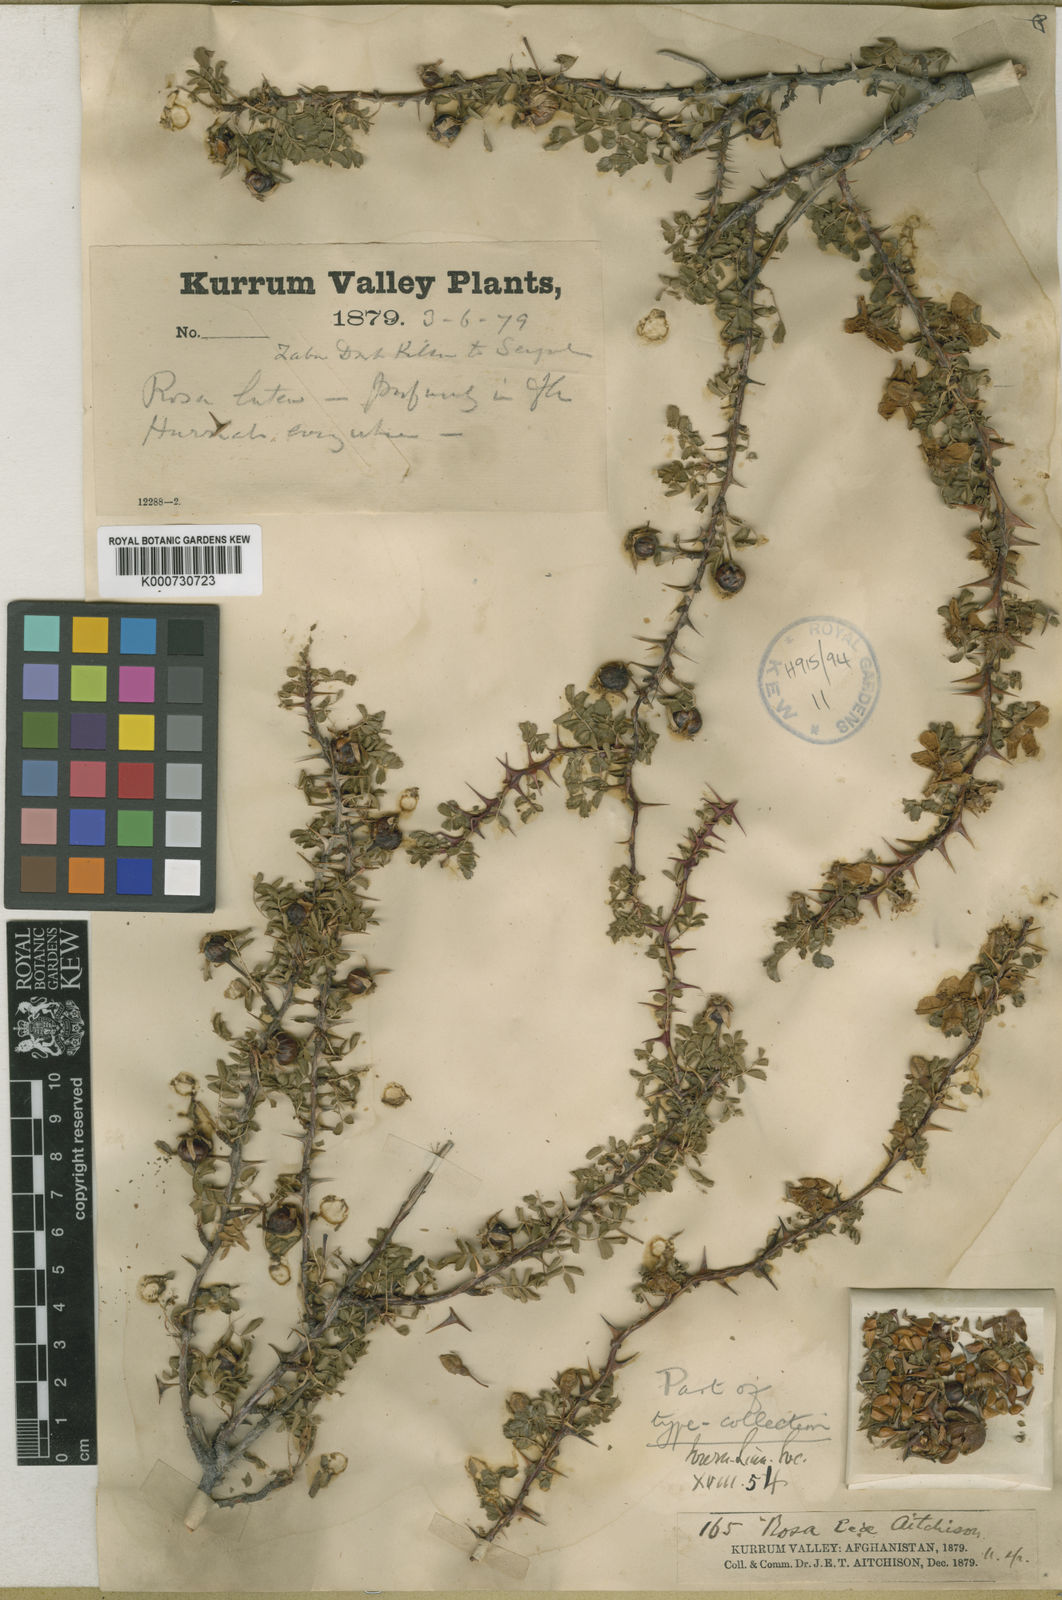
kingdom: Plantae
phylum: Tracheophyta
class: Magnoliopsida
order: Rosales
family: Rosaceae
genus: Rosa
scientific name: Rosa ecae
